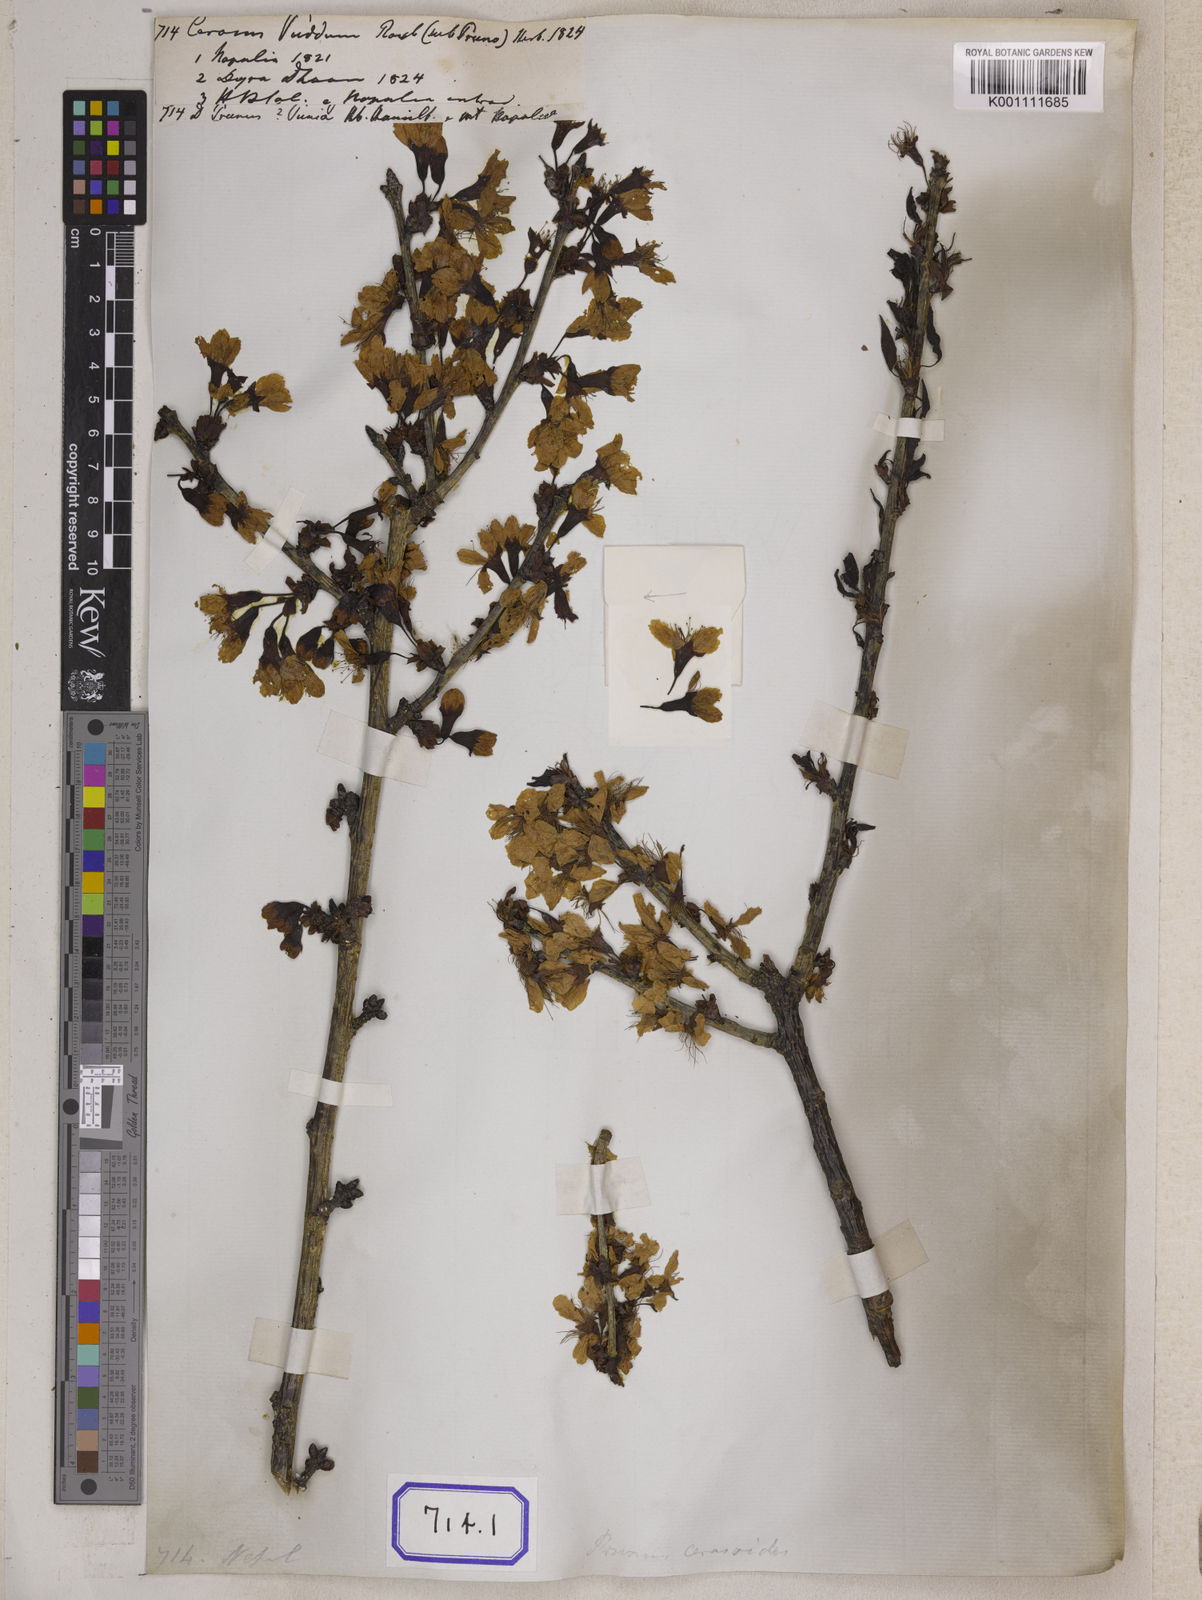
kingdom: Plantae
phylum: Tracheophyta
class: Magnoliopsida
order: Rosales
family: Rosaceae
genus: Prunus
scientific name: Prunus Cerasus myrtifolia
